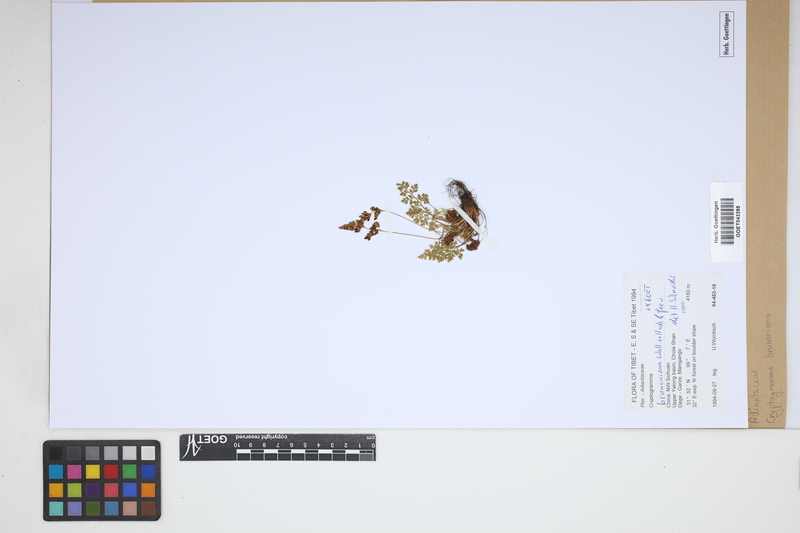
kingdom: Plantae
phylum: Tracheophyta
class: Polypodiopsida
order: Polypodiales
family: Pteridaceae
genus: Cryptogramma
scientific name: Cryptogramma brunoniana
